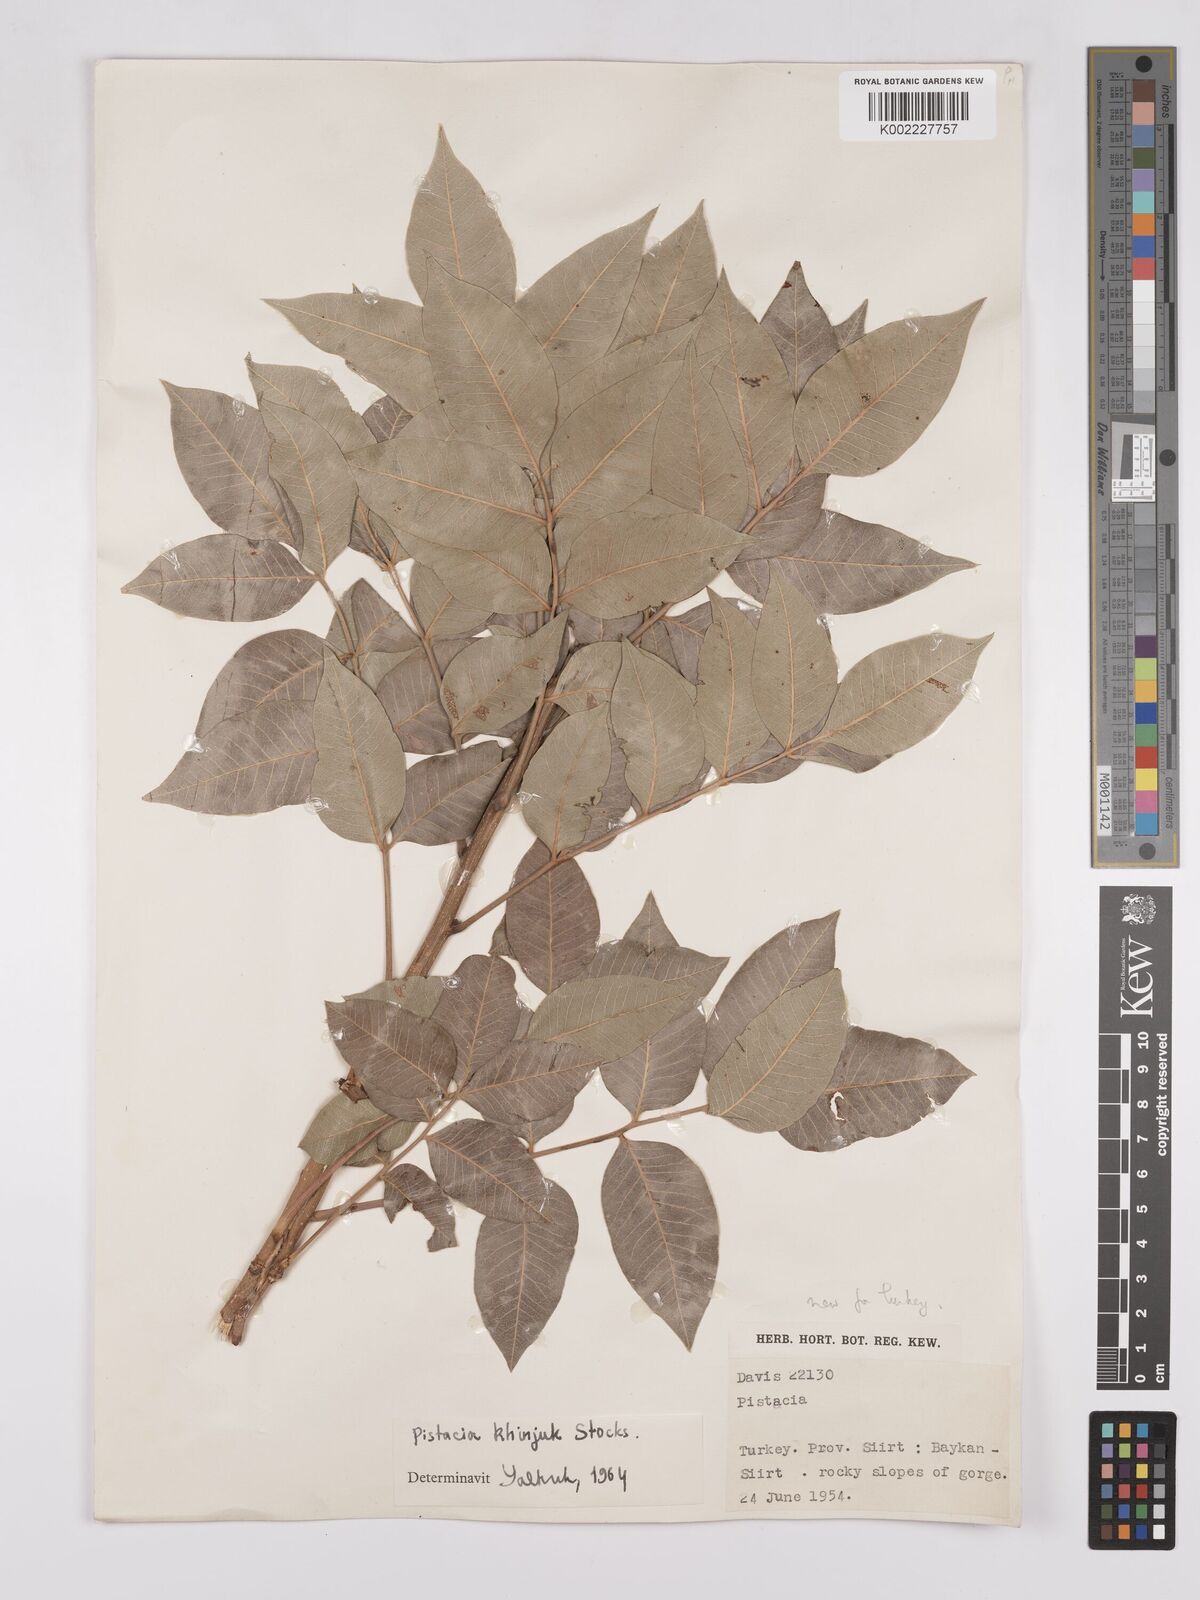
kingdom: Plantae
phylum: Tracheophyta
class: Magnoliopsida
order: Sapindales
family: Anacardiaceae
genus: Pistacia
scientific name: Pistacia
